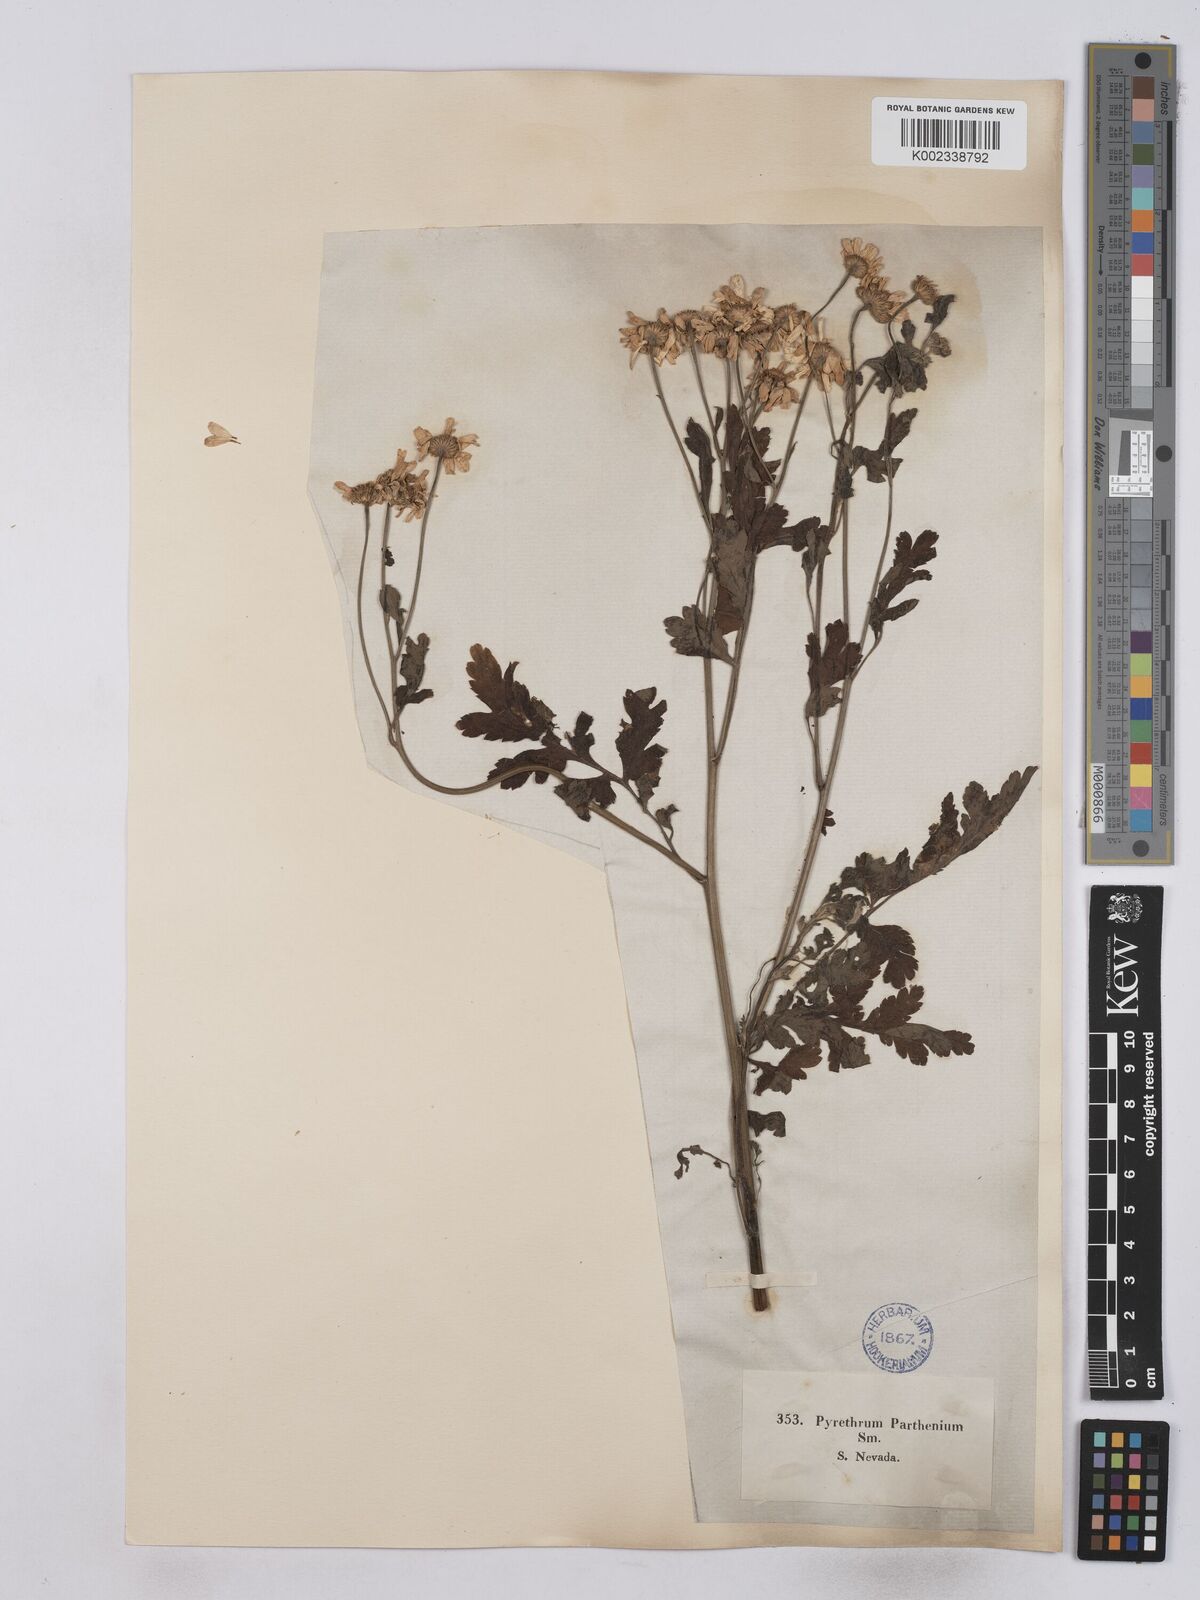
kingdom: Plantae
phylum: Tracheophyta
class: Magnoliopsida
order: Asterales
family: Asteraceae
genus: Tanacetum
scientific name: Tanacetum parthenium
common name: Feverfew
